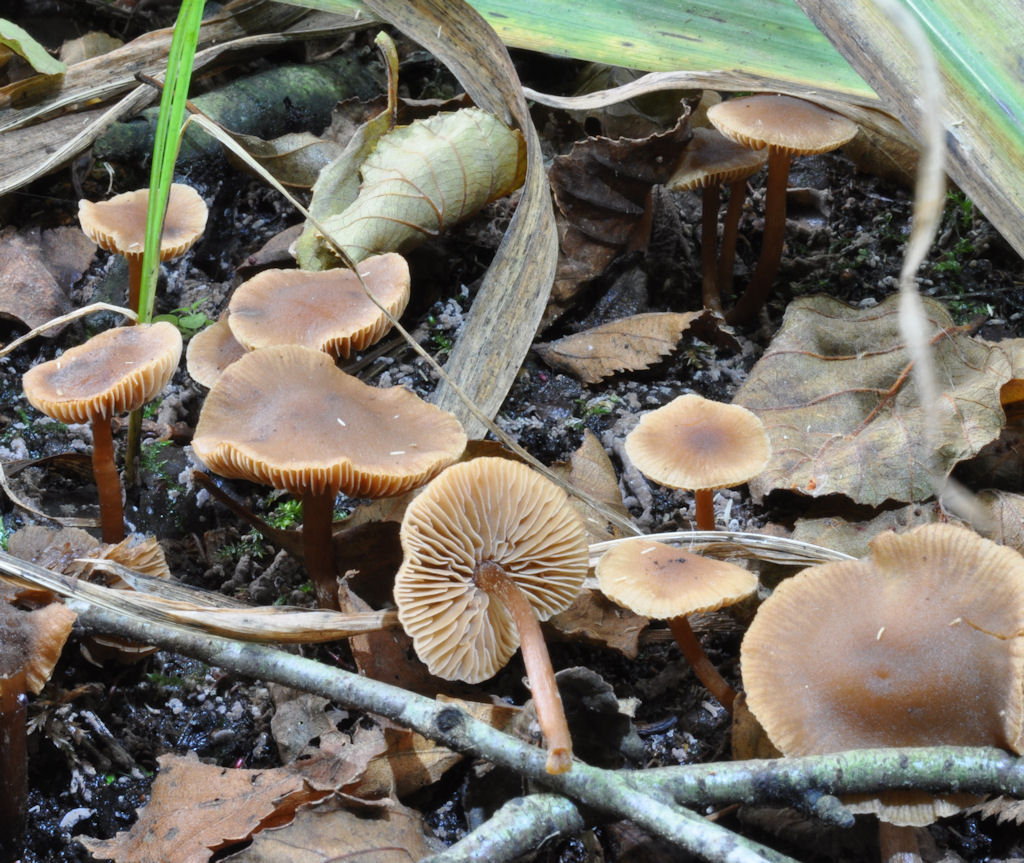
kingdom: Fungi
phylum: Basidiomycota
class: Agaricomycetes
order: Agaricales
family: Hymenogastraceae
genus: Naucoria
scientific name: Naucoria subconspersa
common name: filtet knaphat
